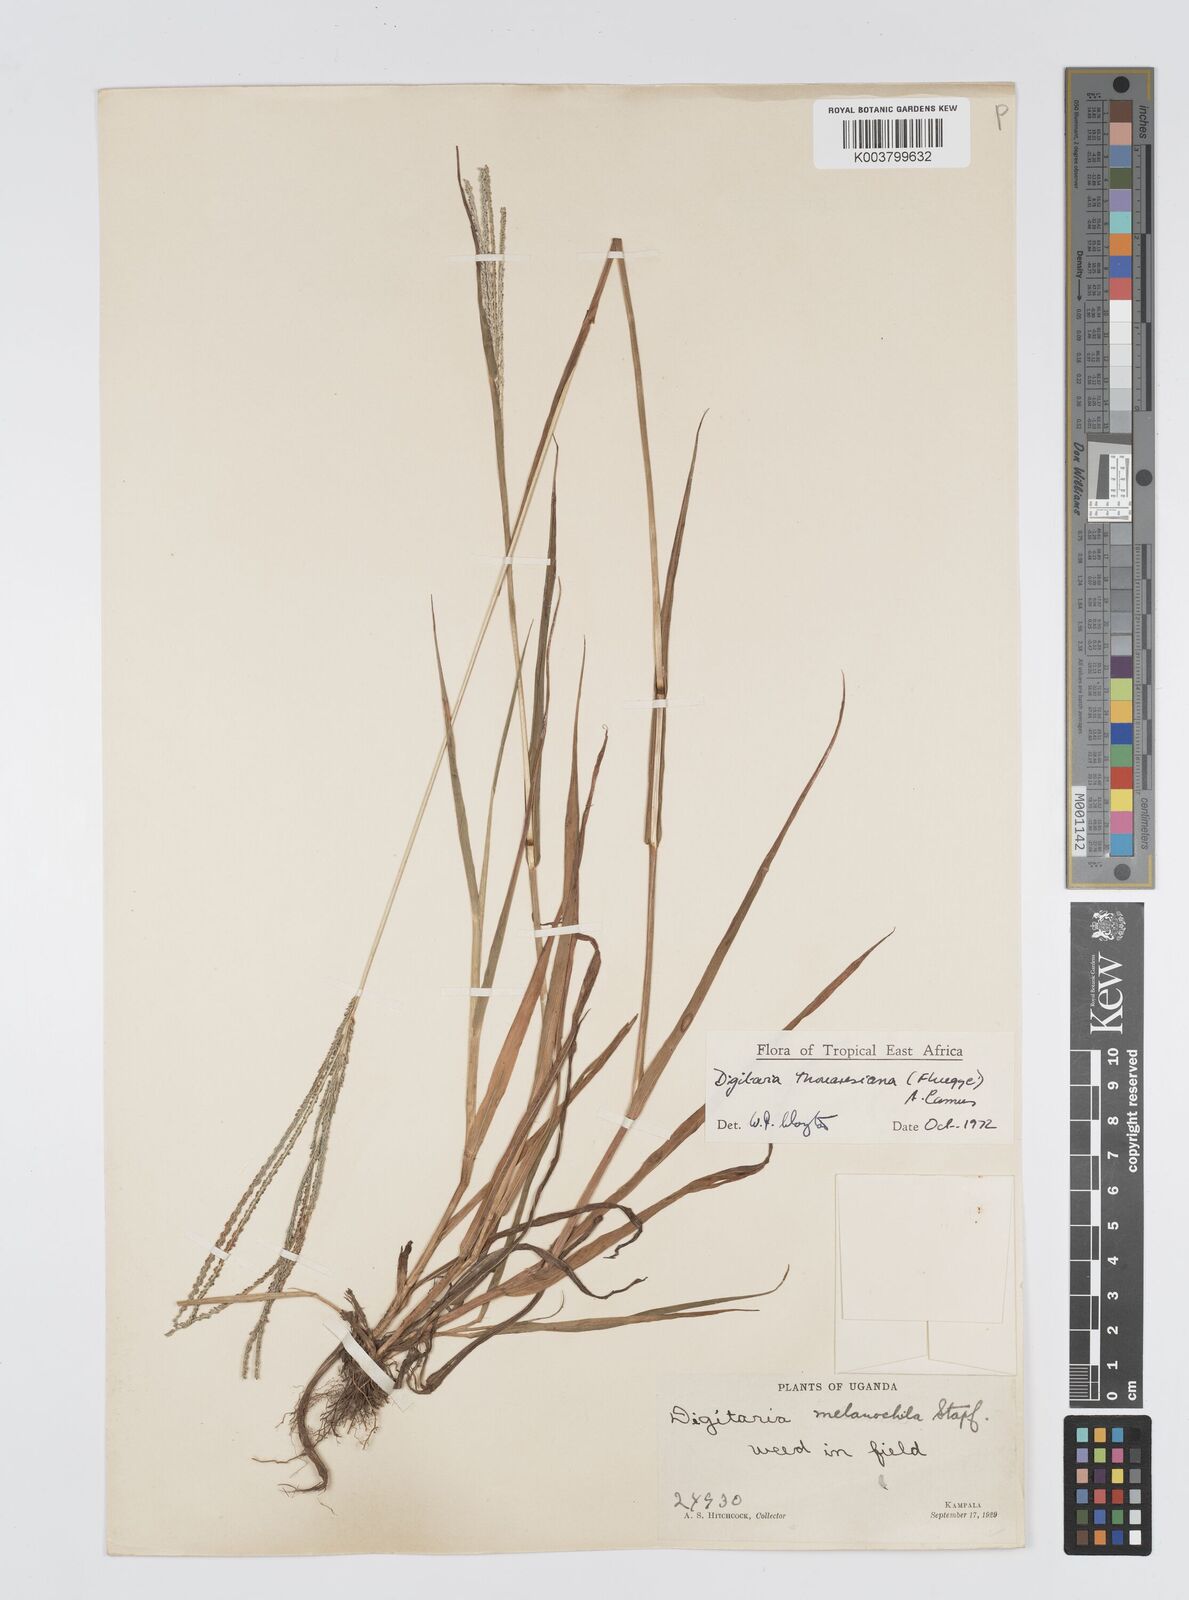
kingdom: Plantae
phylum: Tracheophyta
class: Liliopsida
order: Poales
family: Poaceae
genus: Digitaria
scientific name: Digitaria thouarsiana
